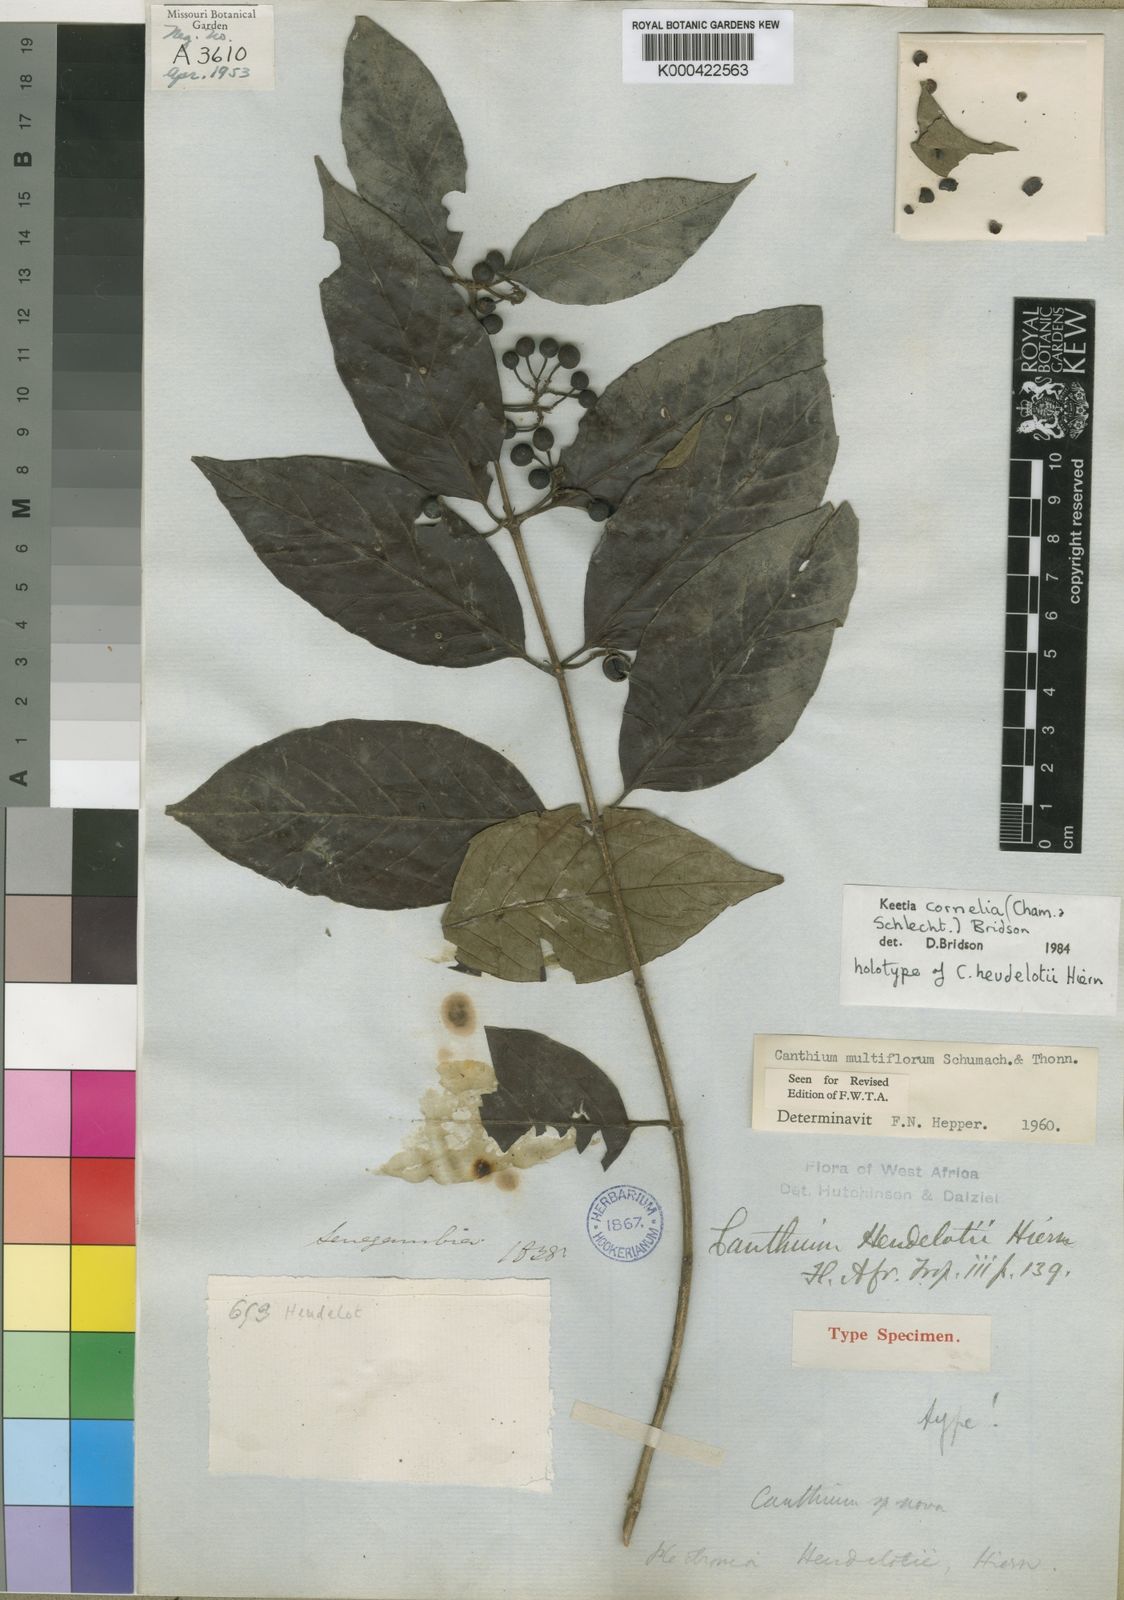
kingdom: Plantae
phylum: Tracheophyta
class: Magnoliopsida
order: Gentianales
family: Rubiaceae
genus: Keetia
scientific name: Keetia cornelia
